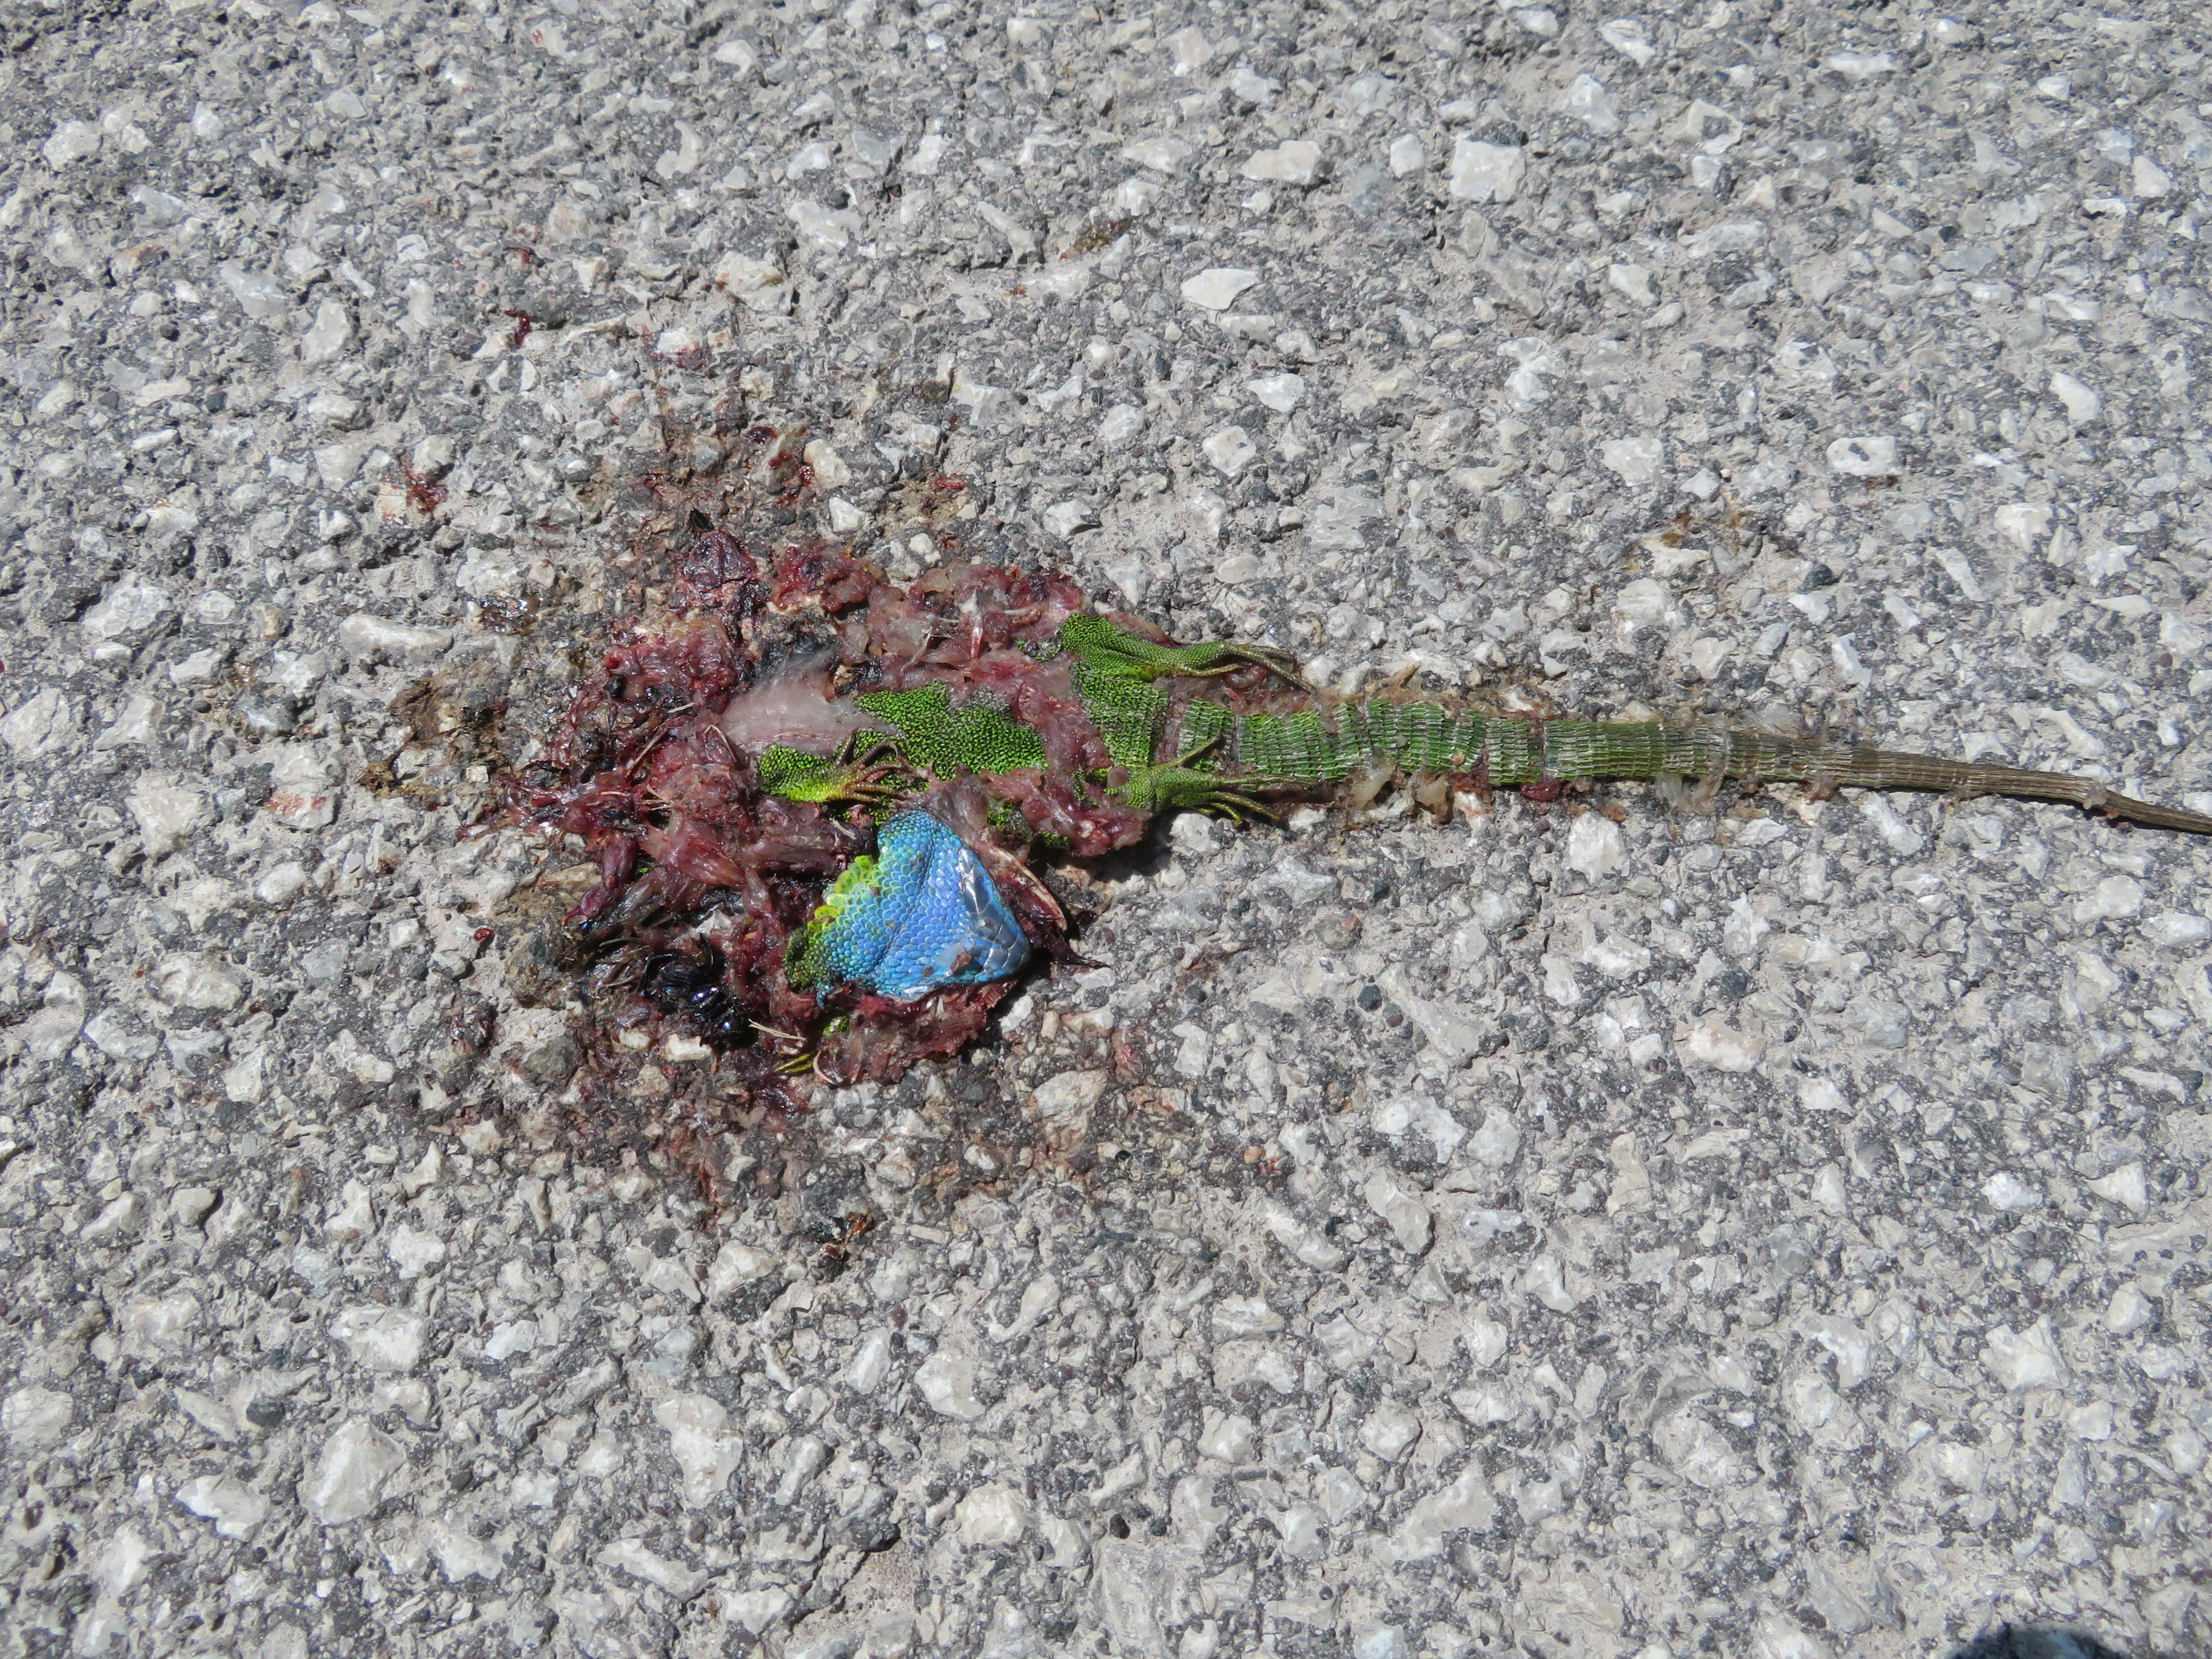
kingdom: Animalia
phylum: Chordata
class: Squamata
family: Lacertidae
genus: Lacerta
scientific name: Lacerta viridis
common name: European green lizard
